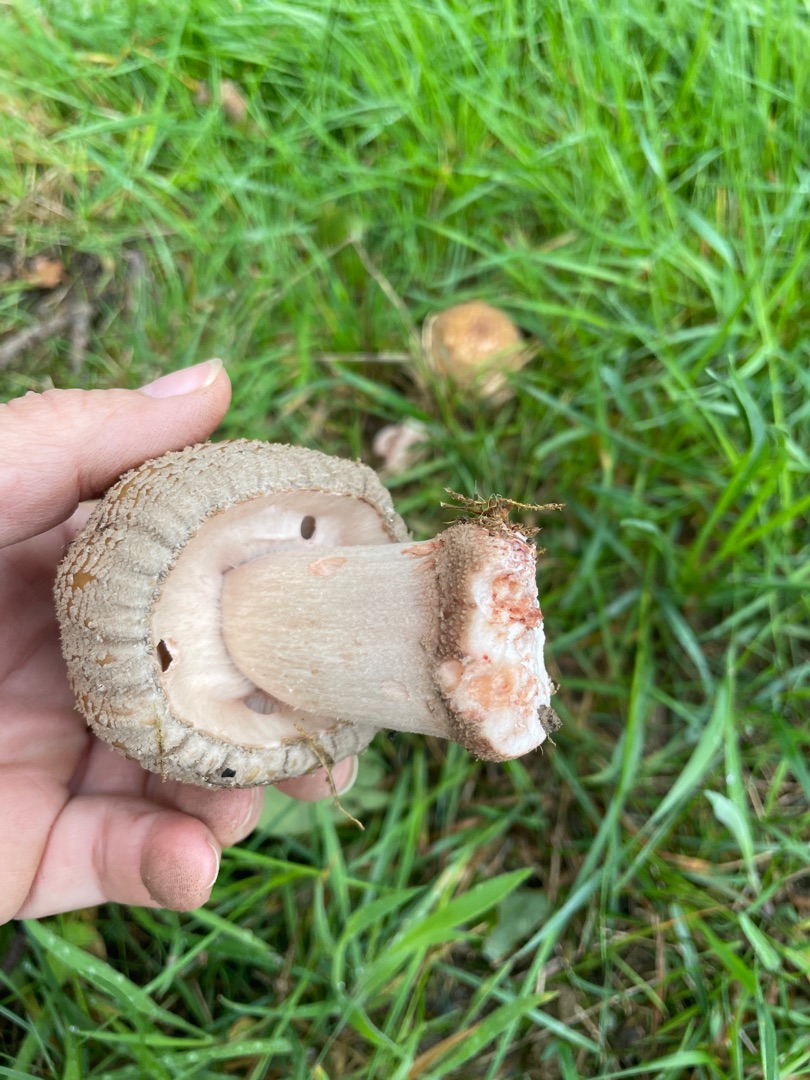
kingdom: Fungi
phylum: Basidiomycota
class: Agaricomycetes
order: Agaricales
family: Amanitaceae
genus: Amanita
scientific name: Amanita rubescens
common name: Rødmende fluesvamp
